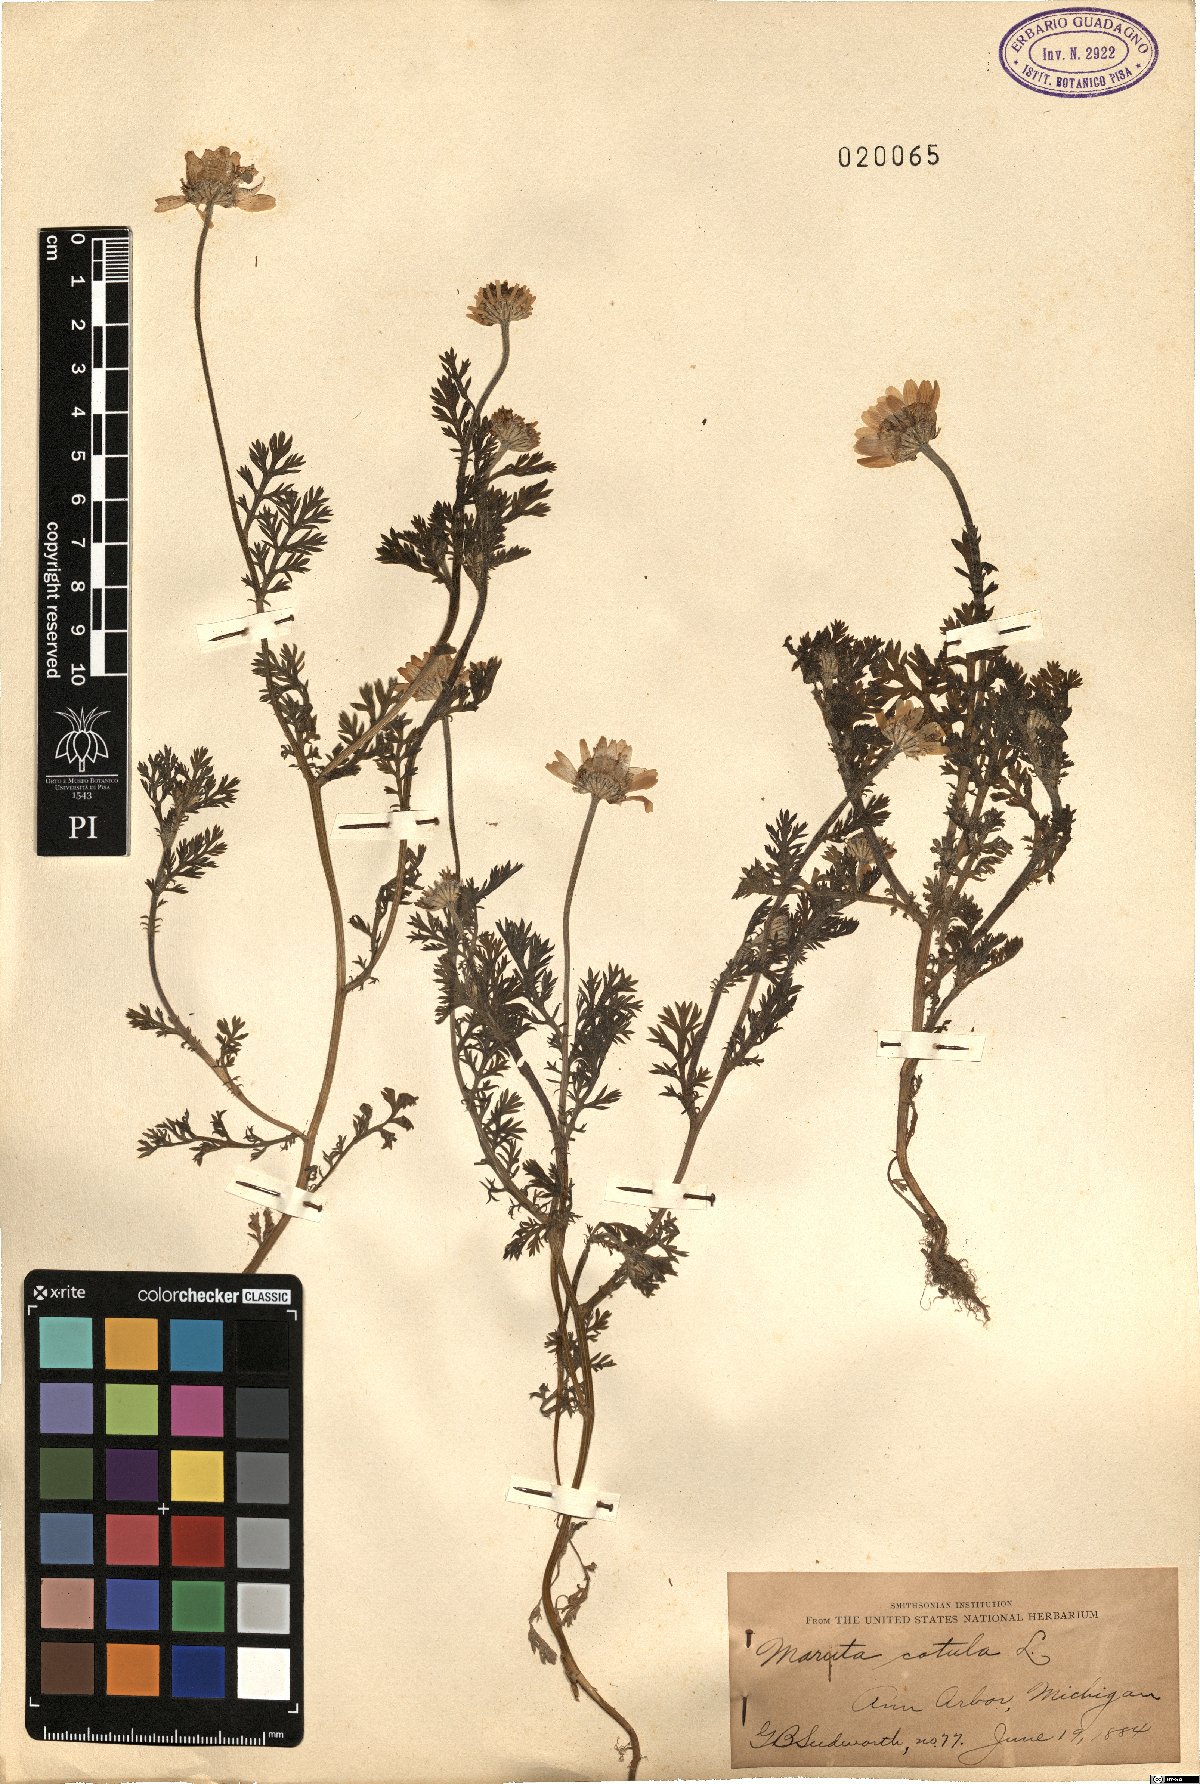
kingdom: Plantae
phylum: Tracheophyta
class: Magnoliopsida
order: Asterales
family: Asteraceae
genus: Anthemis
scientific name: Anthemis cotula
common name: Stinking chamomile
